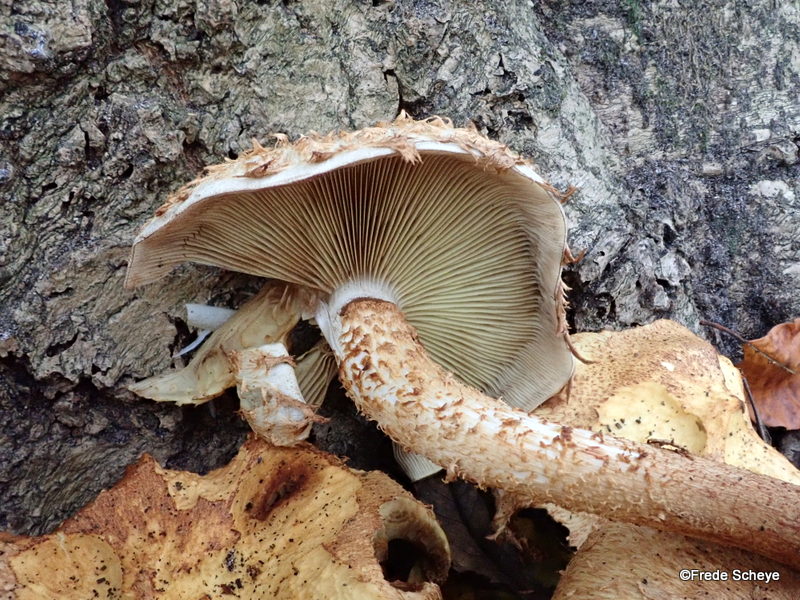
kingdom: Fungi
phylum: Basidiomycota
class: Agaricomycetes
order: Agaricales
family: Strophariaceae
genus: Pholiota
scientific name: Pholiota squarrosa
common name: krumskællet skælhat
